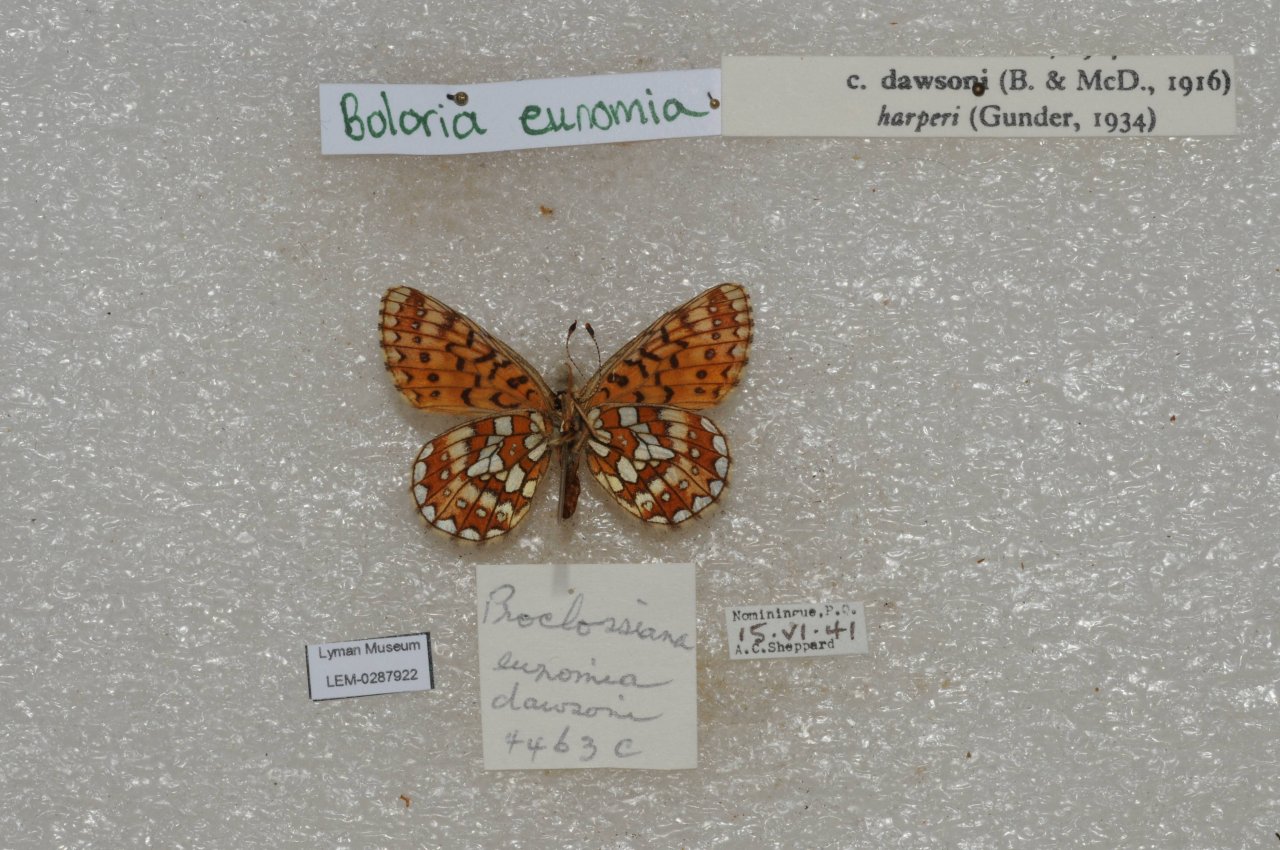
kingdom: Animalia
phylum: Arthropoda
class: Insecta
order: Lepidoptera
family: Nymphalidae
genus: Boloria
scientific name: Boloria eunomia
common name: Bog Fritillary
